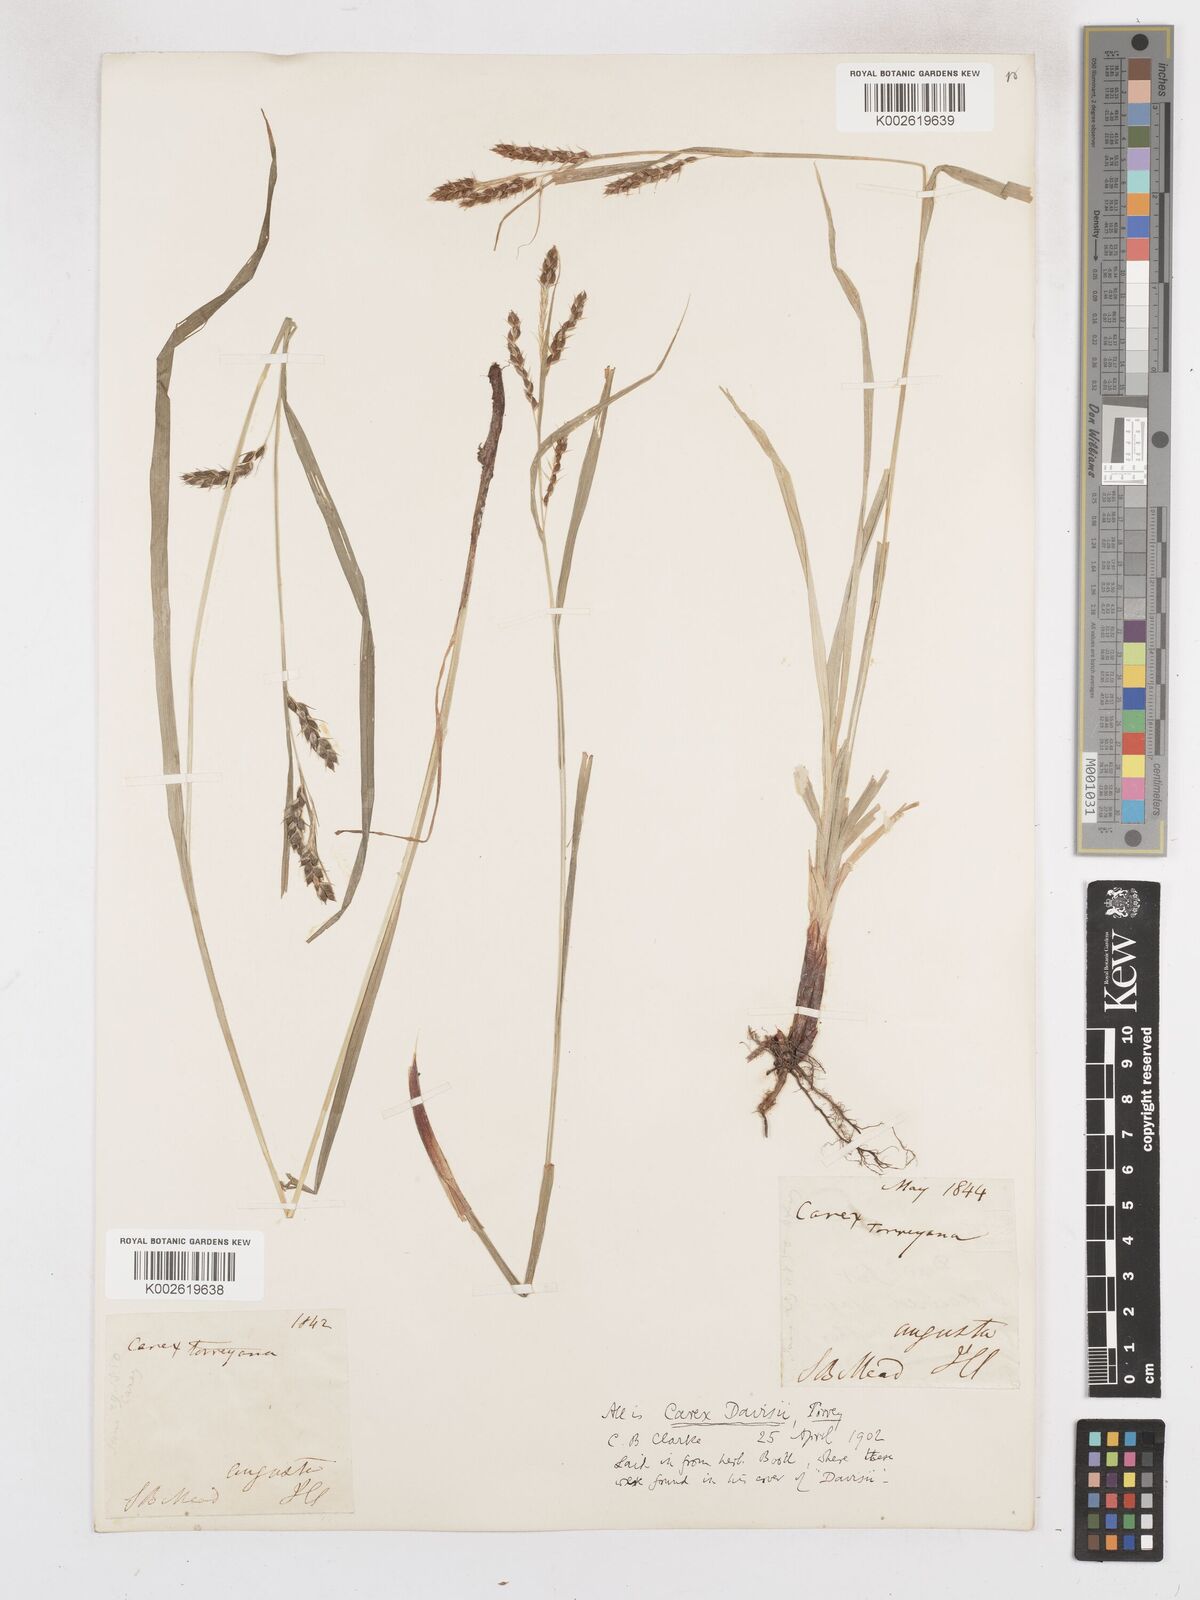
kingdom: Plantae
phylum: Tracheophyta
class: Liliopsida
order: Poales
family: Cyperaceae
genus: Carex
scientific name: Carex davisii
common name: Davis' sedge
